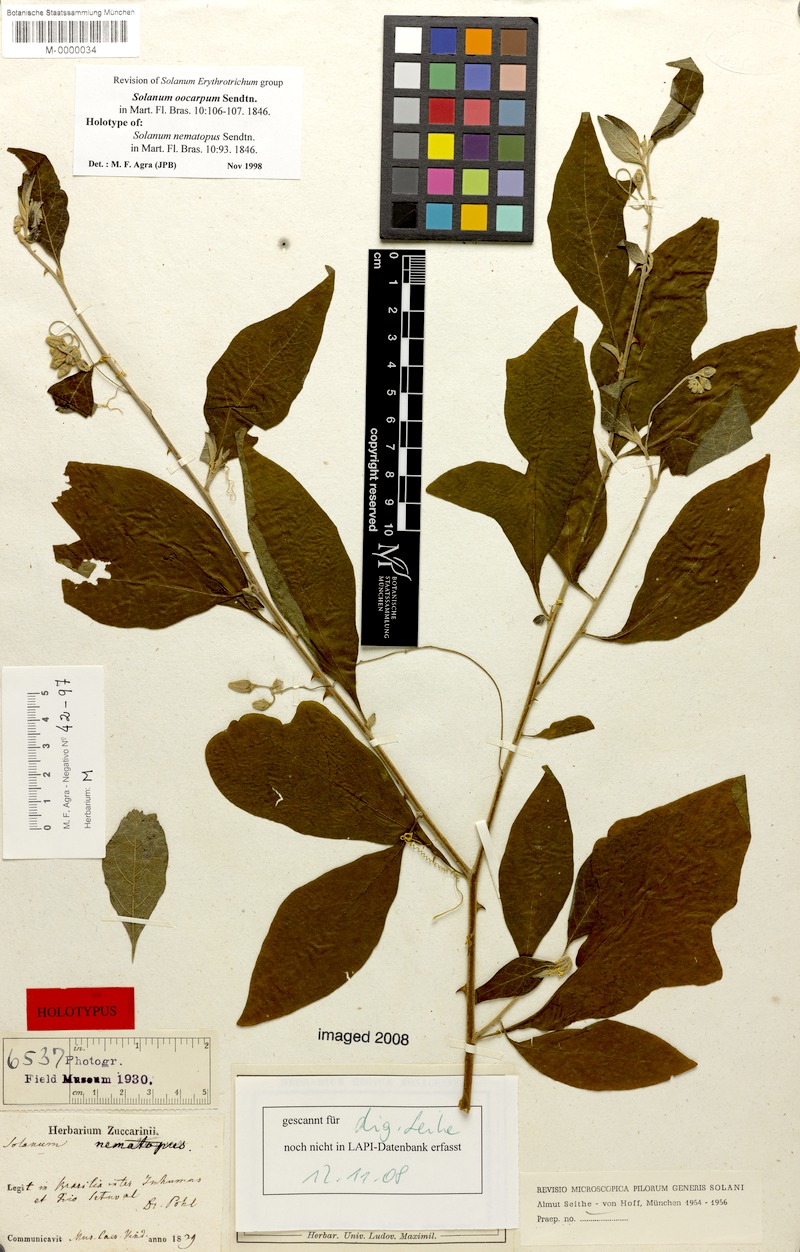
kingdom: Plantae
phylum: Tracheophyta
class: Magnoliopsida
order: Solanales
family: Solanaceae
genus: Solanum
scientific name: Solanum oocarpum
